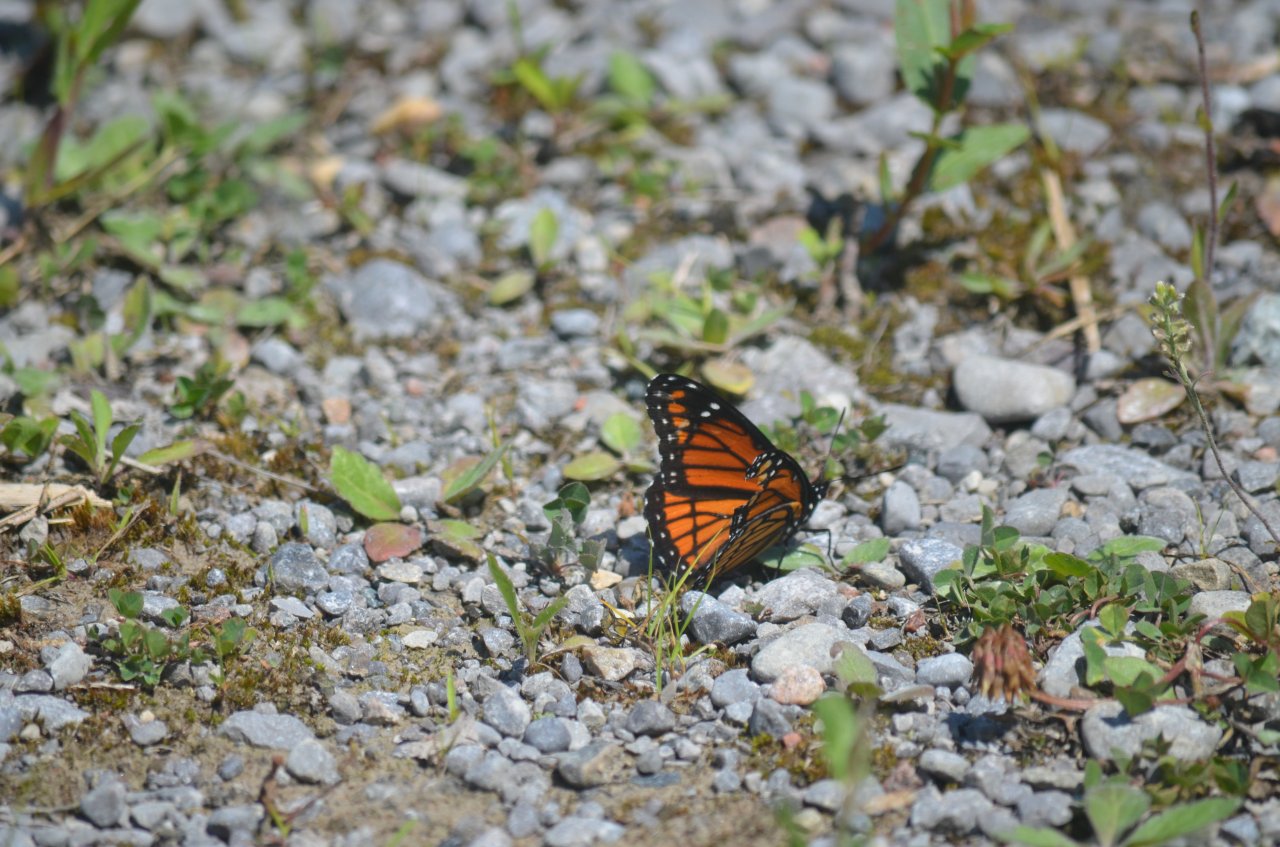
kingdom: Animalia
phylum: Arthropoda
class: Insecta
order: Lepidoptera
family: Nymphalidae
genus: Limenitis
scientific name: Limenitis archippus
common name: Viceroy
